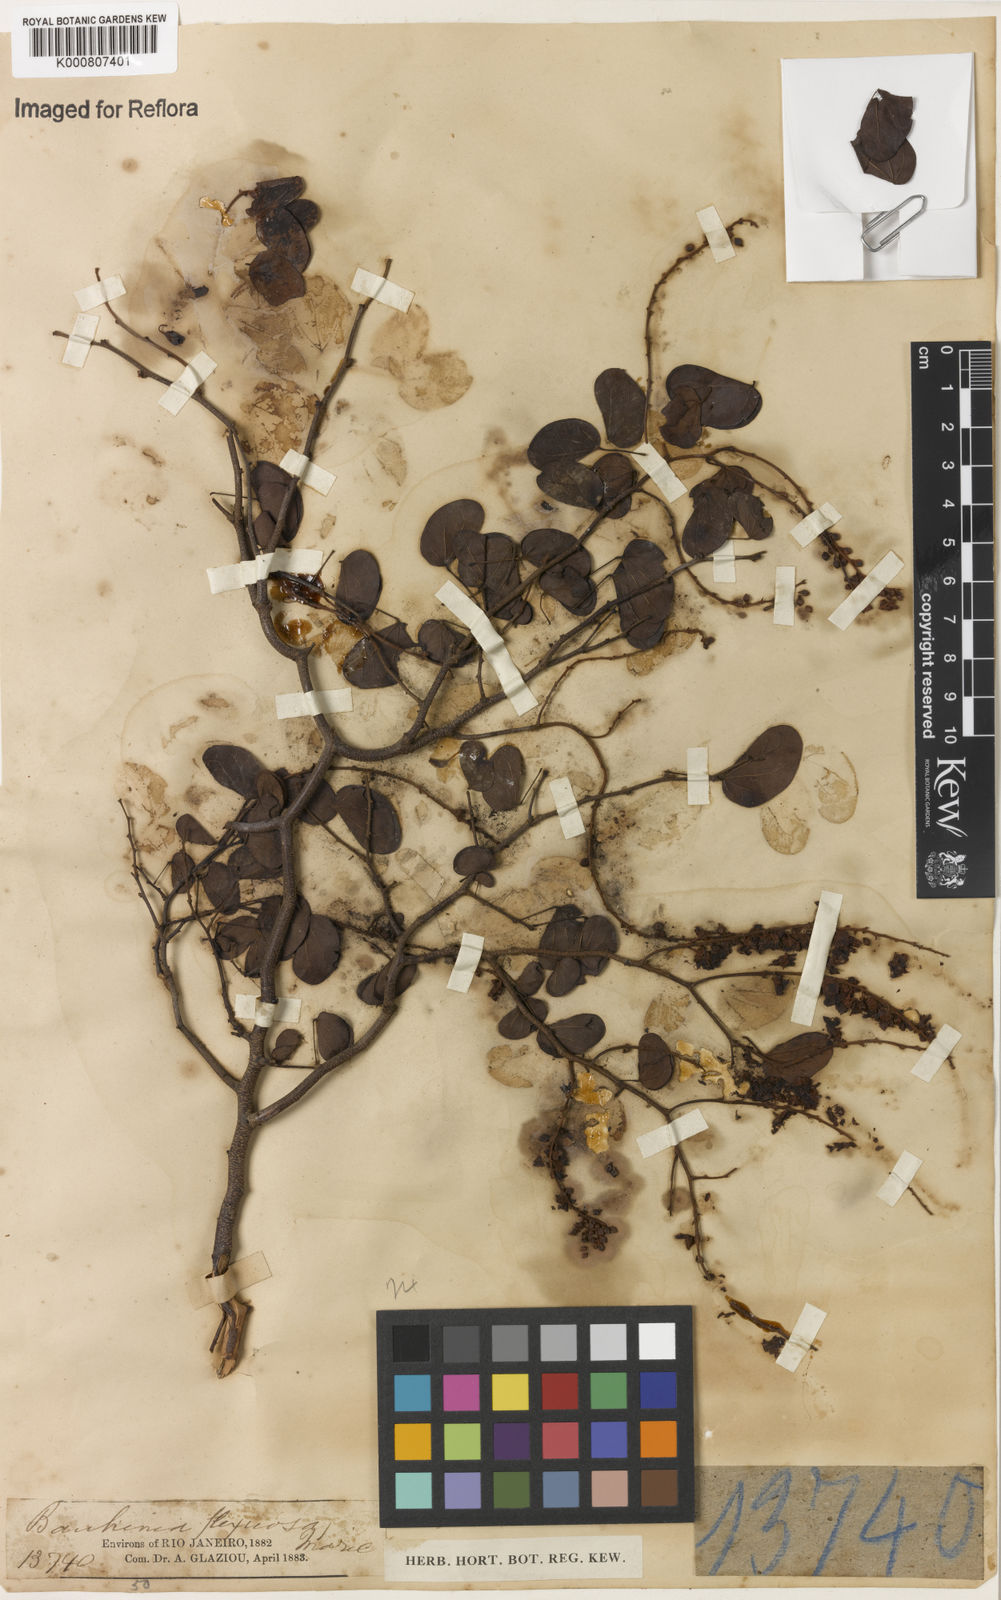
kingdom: Plantae
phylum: Tracheophyta
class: Magnoliopsida
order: Fabales
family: Fabaceae
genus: Schnella
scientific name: Schnella flexuosa
